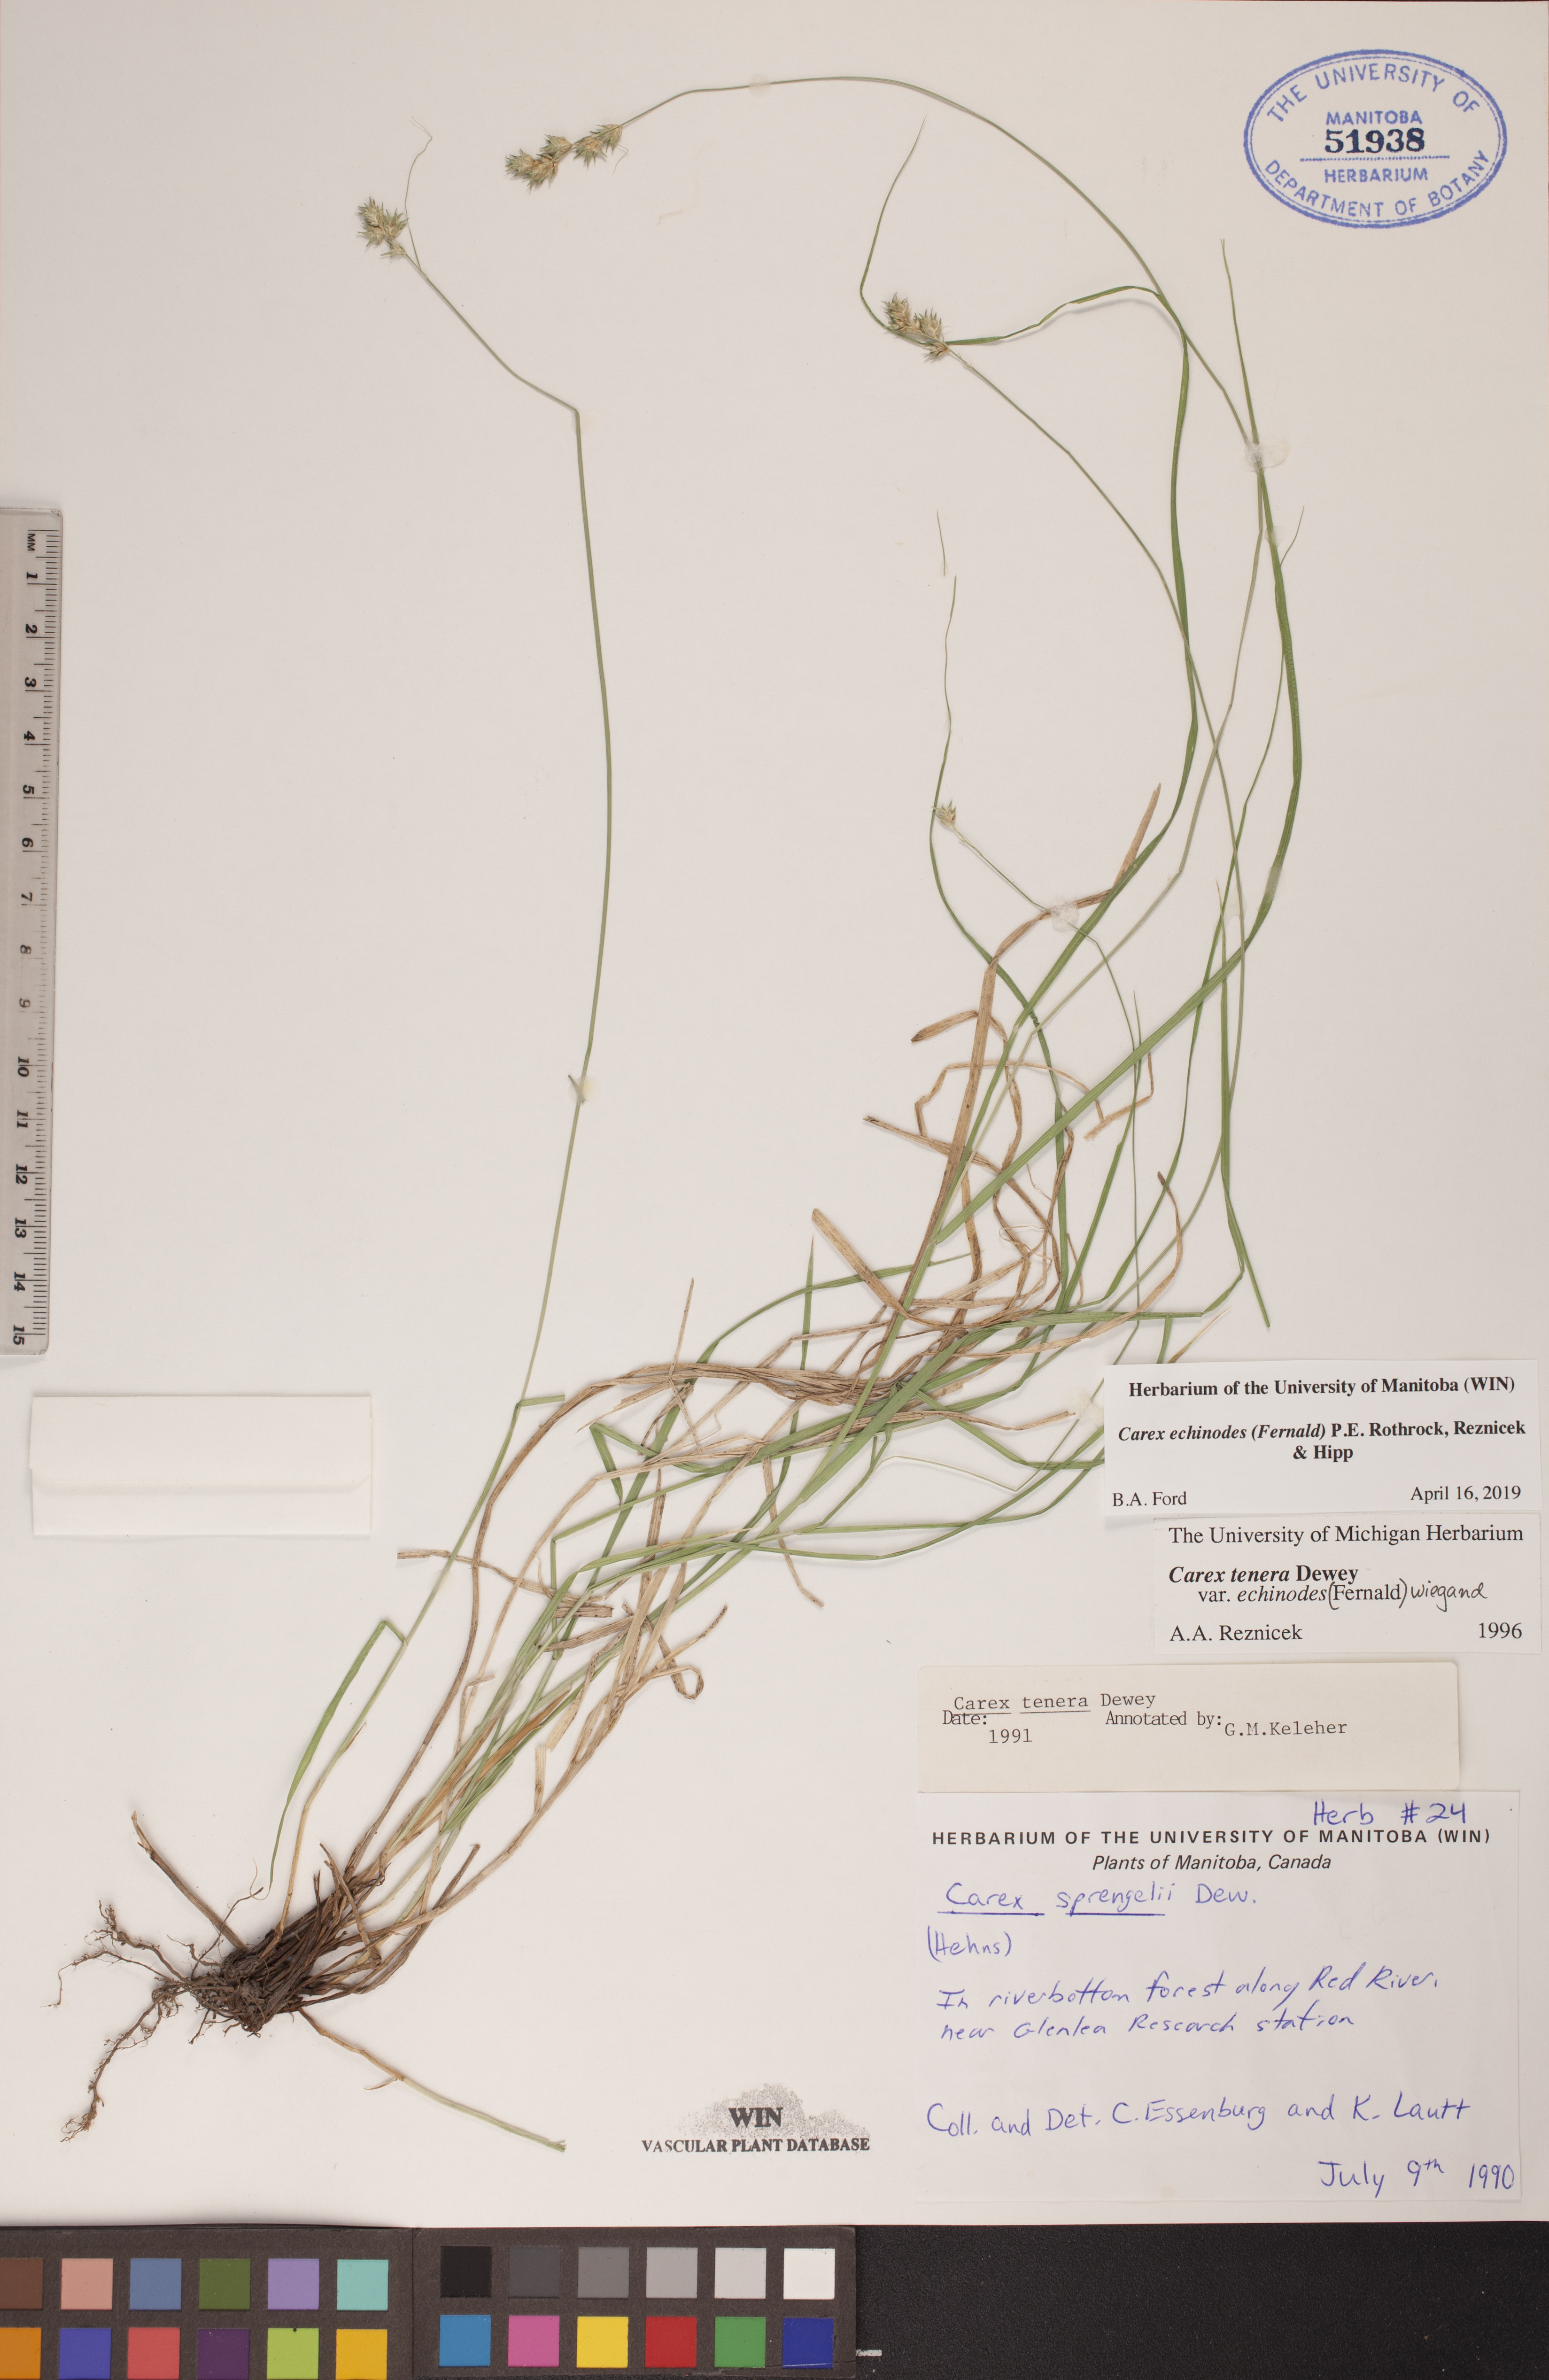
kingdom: Plantae
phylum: Tracheophyta
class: Liliopsida
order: Poales
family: Cyperaceae
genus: Carex
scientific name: Carex echinodes
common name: Marsh straw sedge
